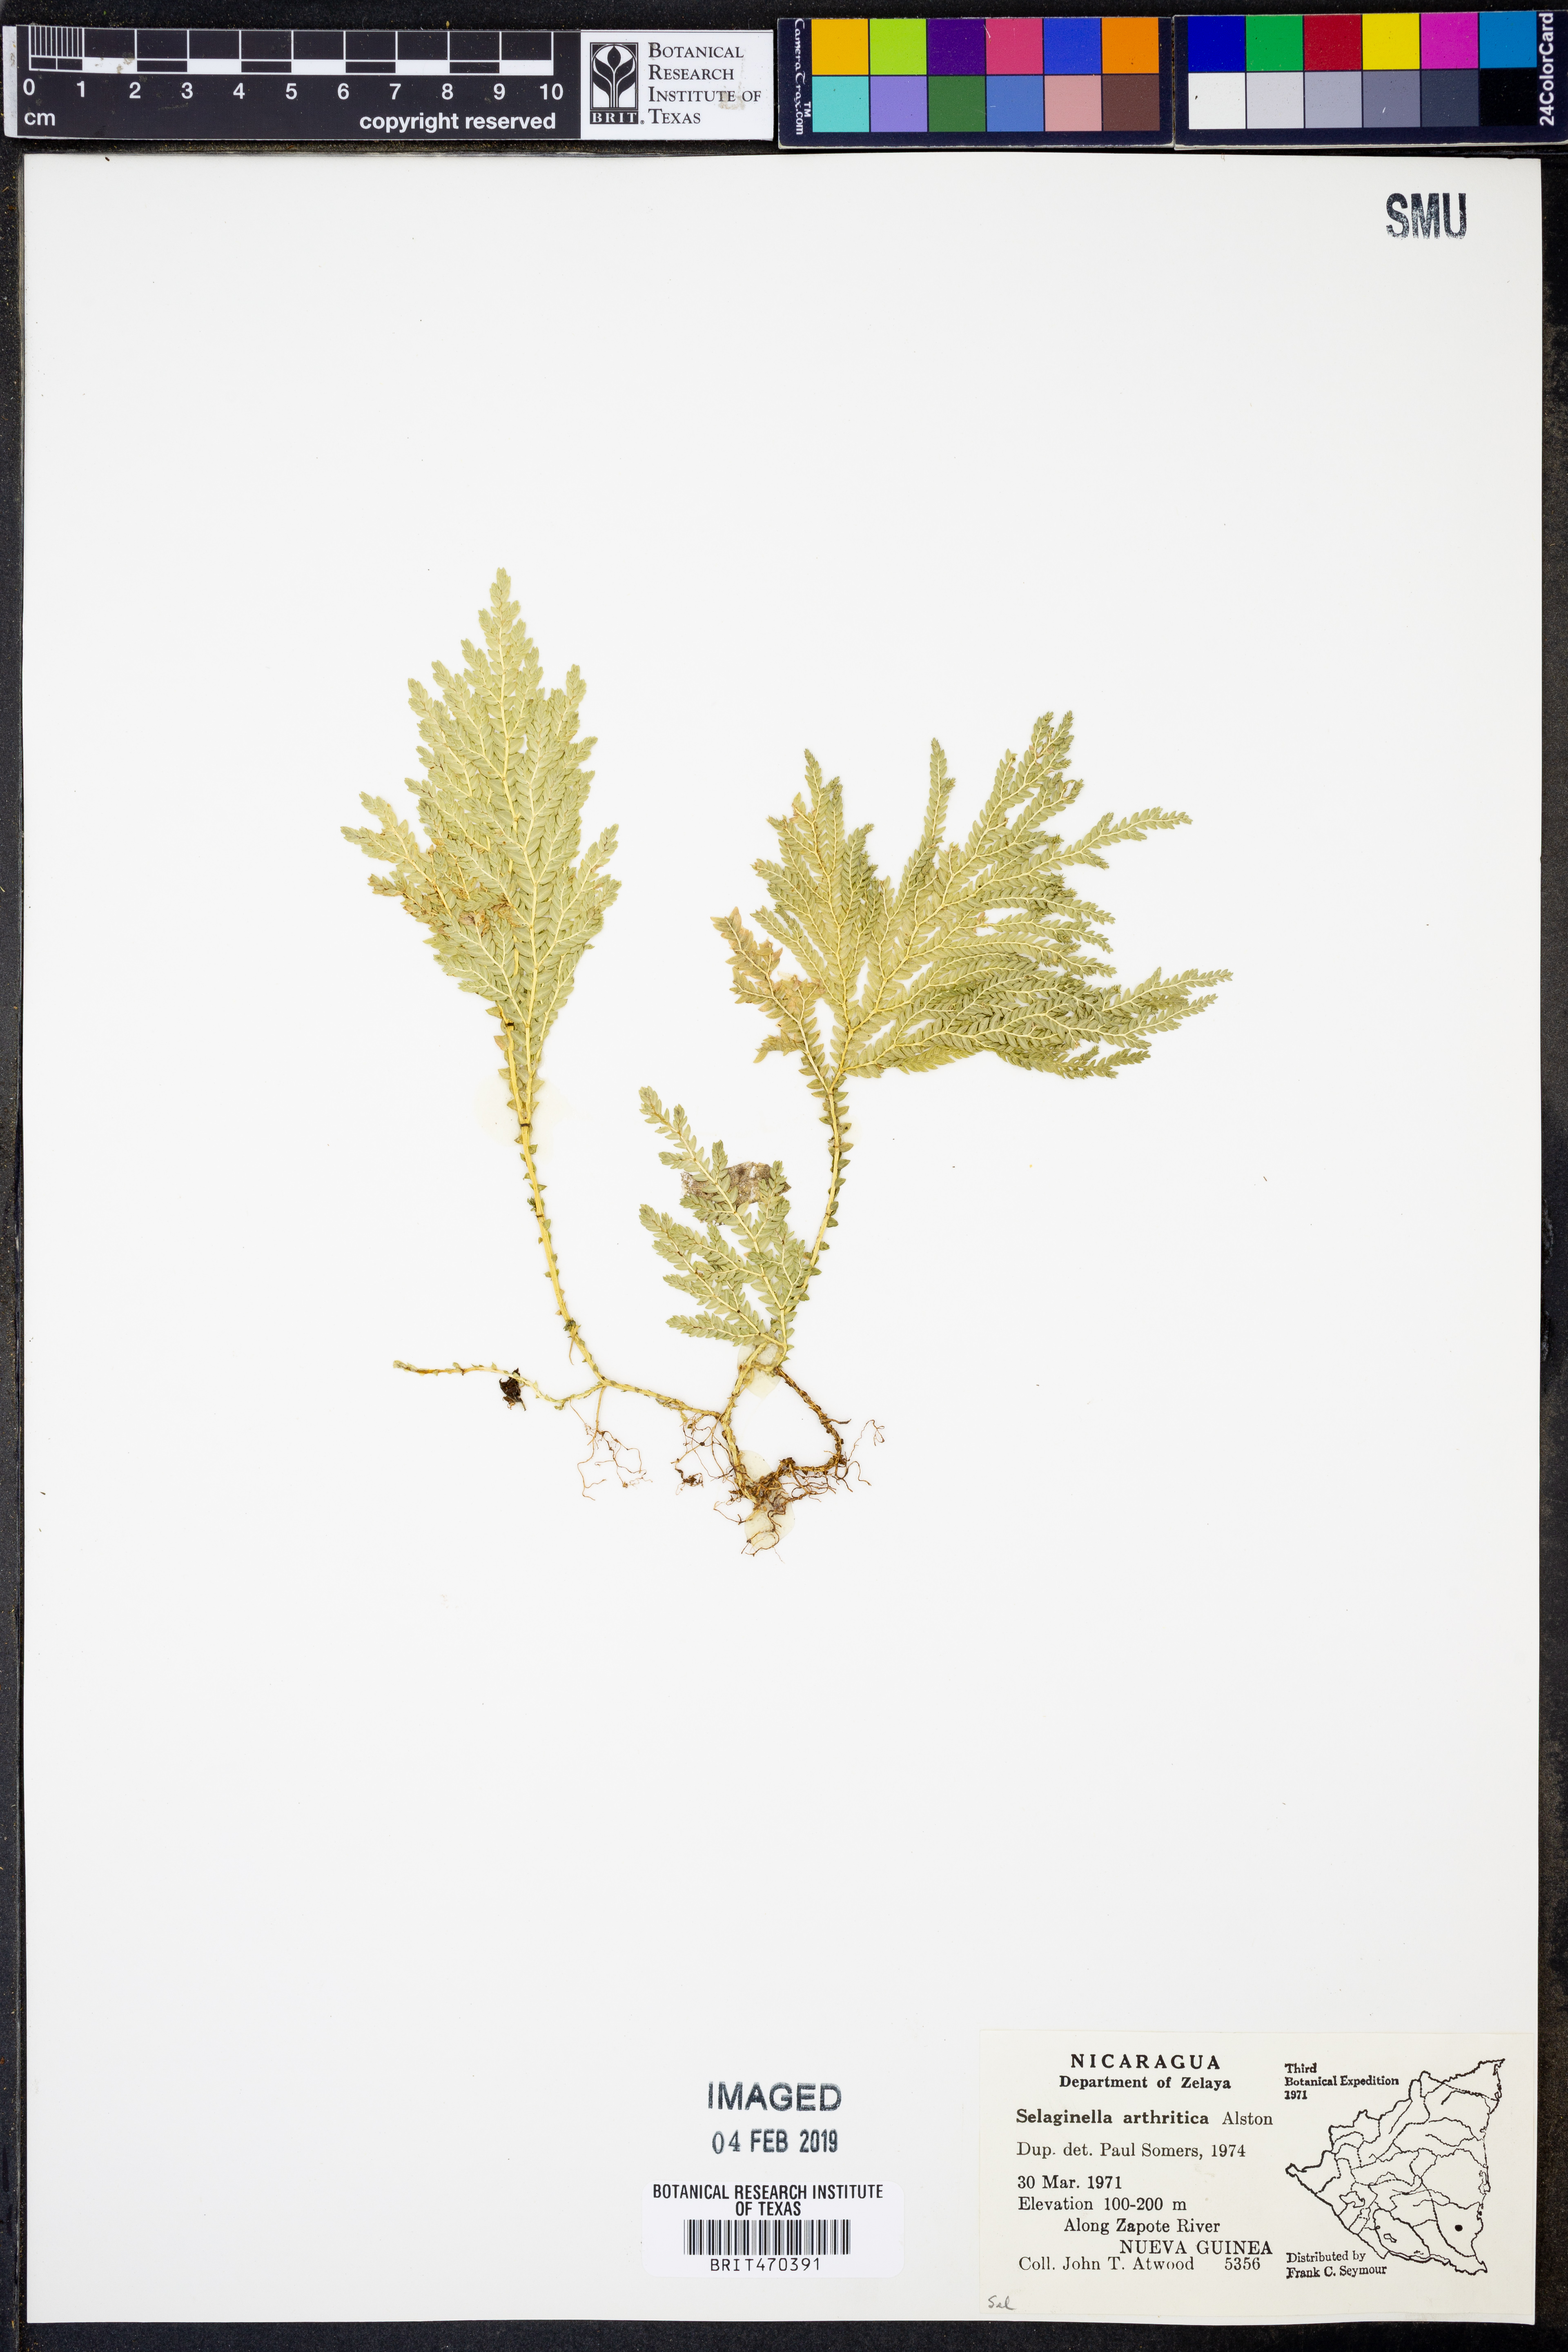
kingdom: Plantae
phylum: Tracheophyta
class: Lycopodiopsida
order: Selaginellales
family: Selaginellaceae
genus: Selaginella
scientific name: Selaginella arthritica
